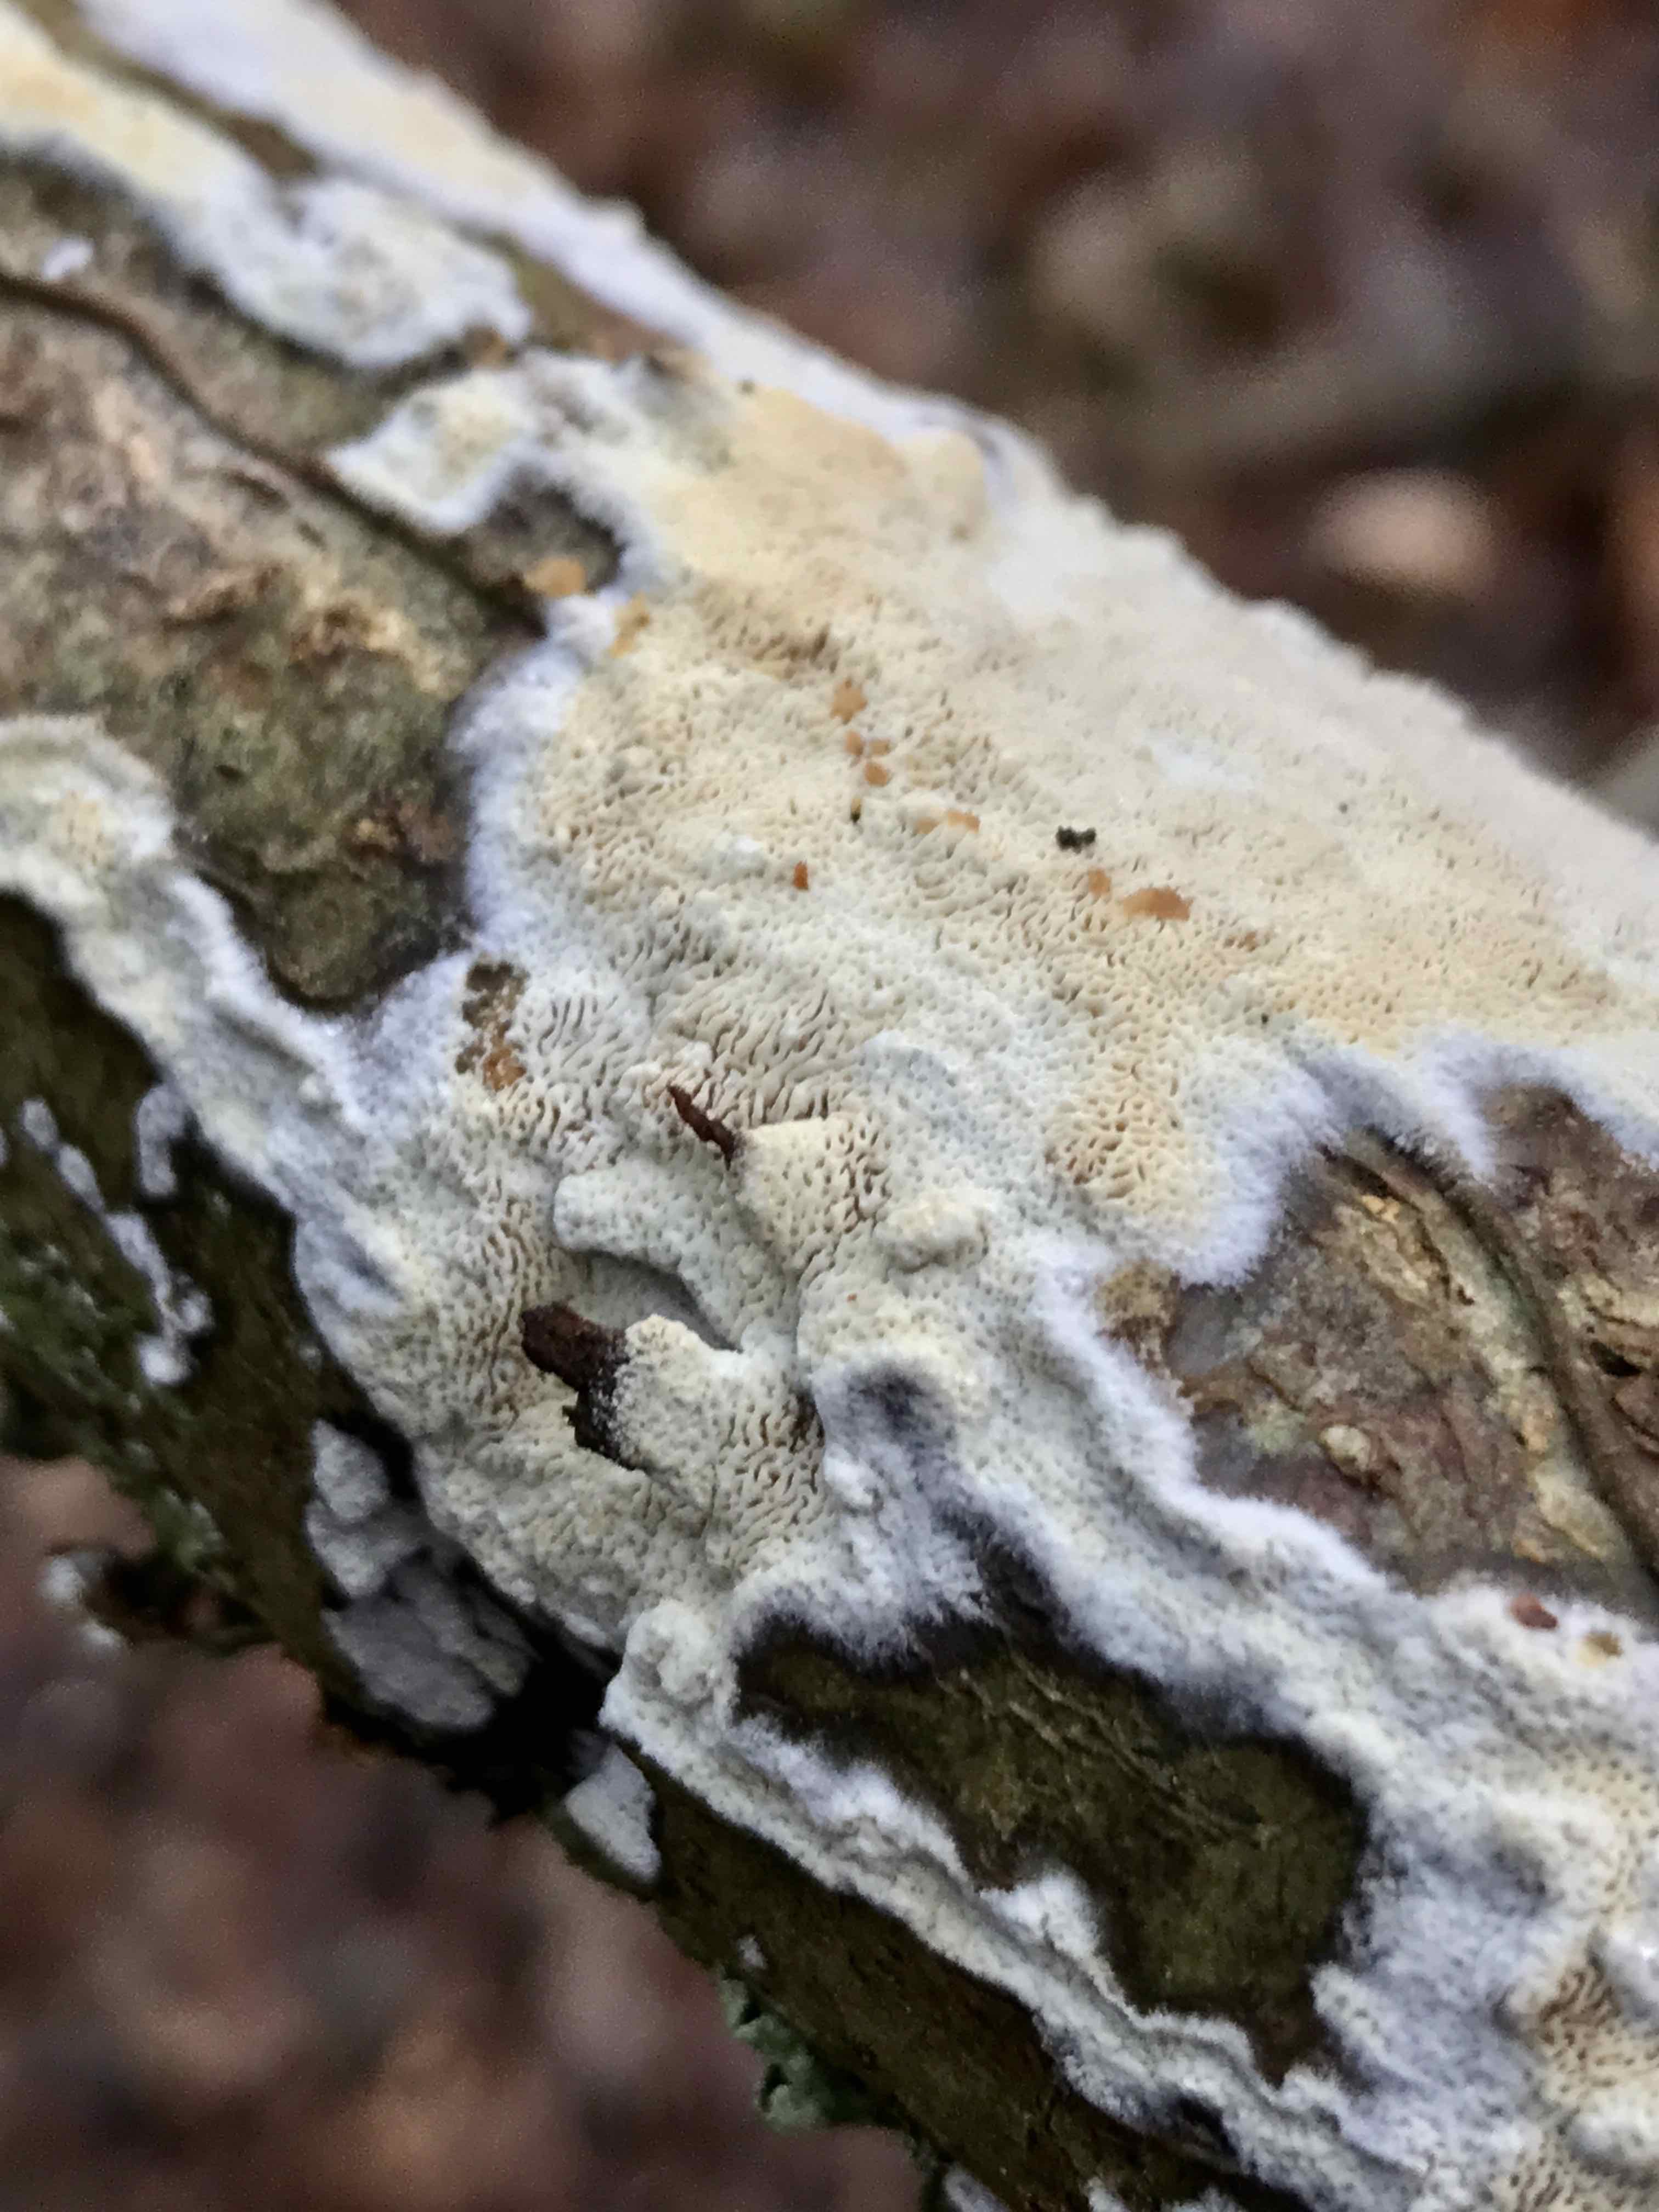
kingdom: Fungi
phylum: Basidiomycota
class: Agaricomycetes
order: Hymenochaetales
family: Schizoporaceae
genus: Xylodon
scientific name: Xylodon subtropicus
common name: labyrint-tandsvamp
